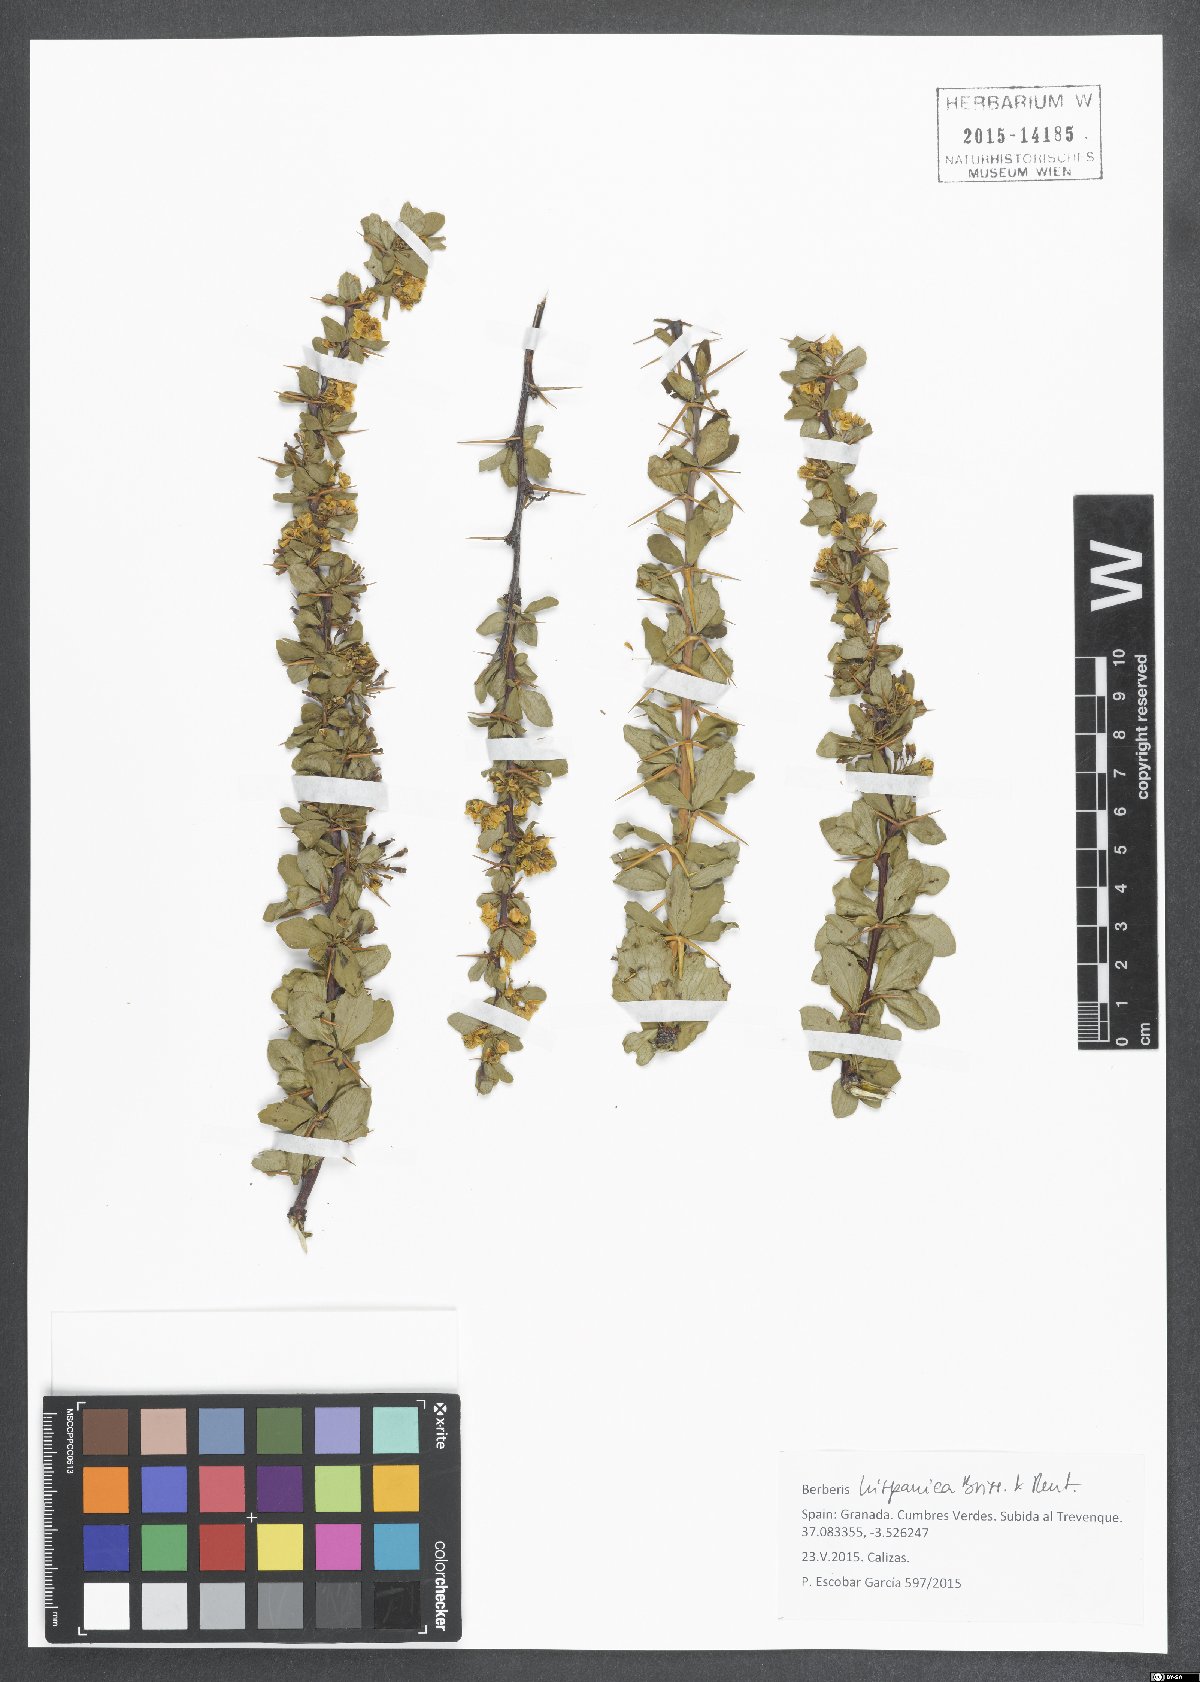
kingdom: Plantae
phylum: Tracheophyta
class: Magnoliopsida
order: Ranunculales
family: Berberidaceae
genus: Berberis
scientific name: Berberis hispanica
